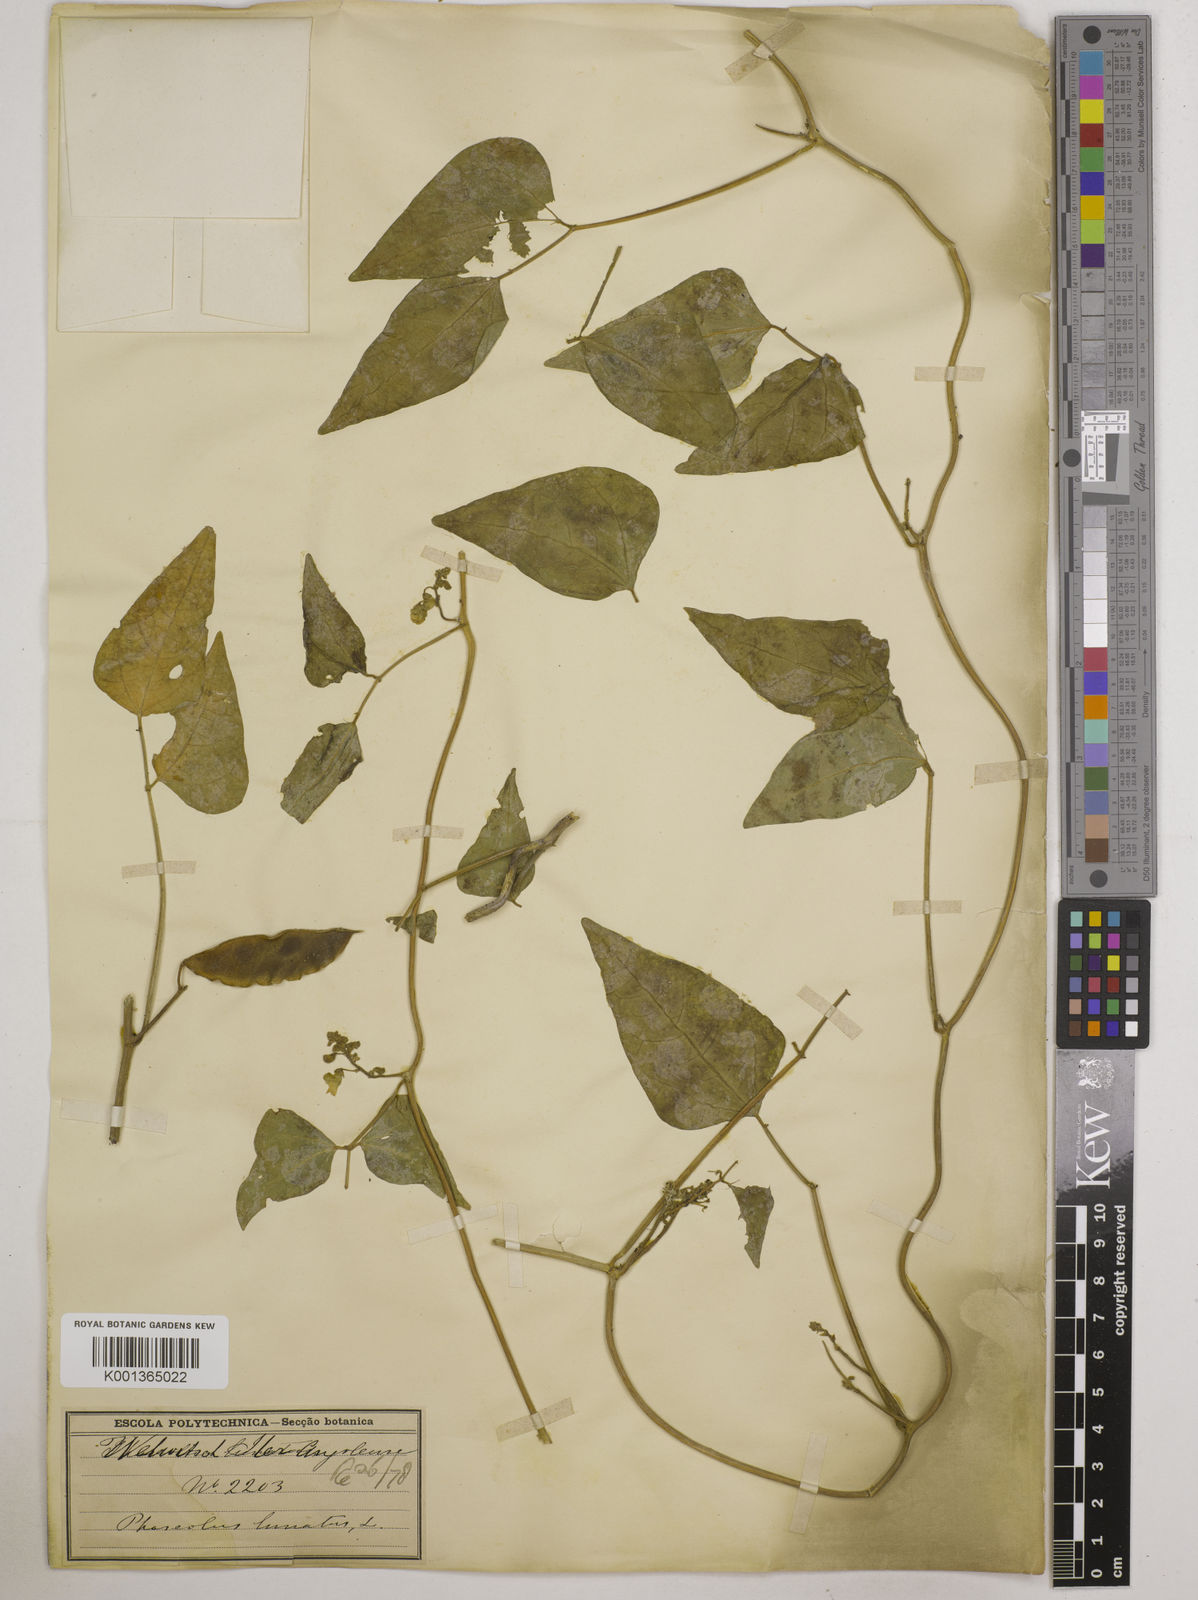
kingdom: Plantae
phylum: Tracheophyta
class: Magnoliopsida
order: Fabales
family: Fabaceae
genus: Phaseolus
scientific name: Phaseolus lunatus
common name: Sieva bean
